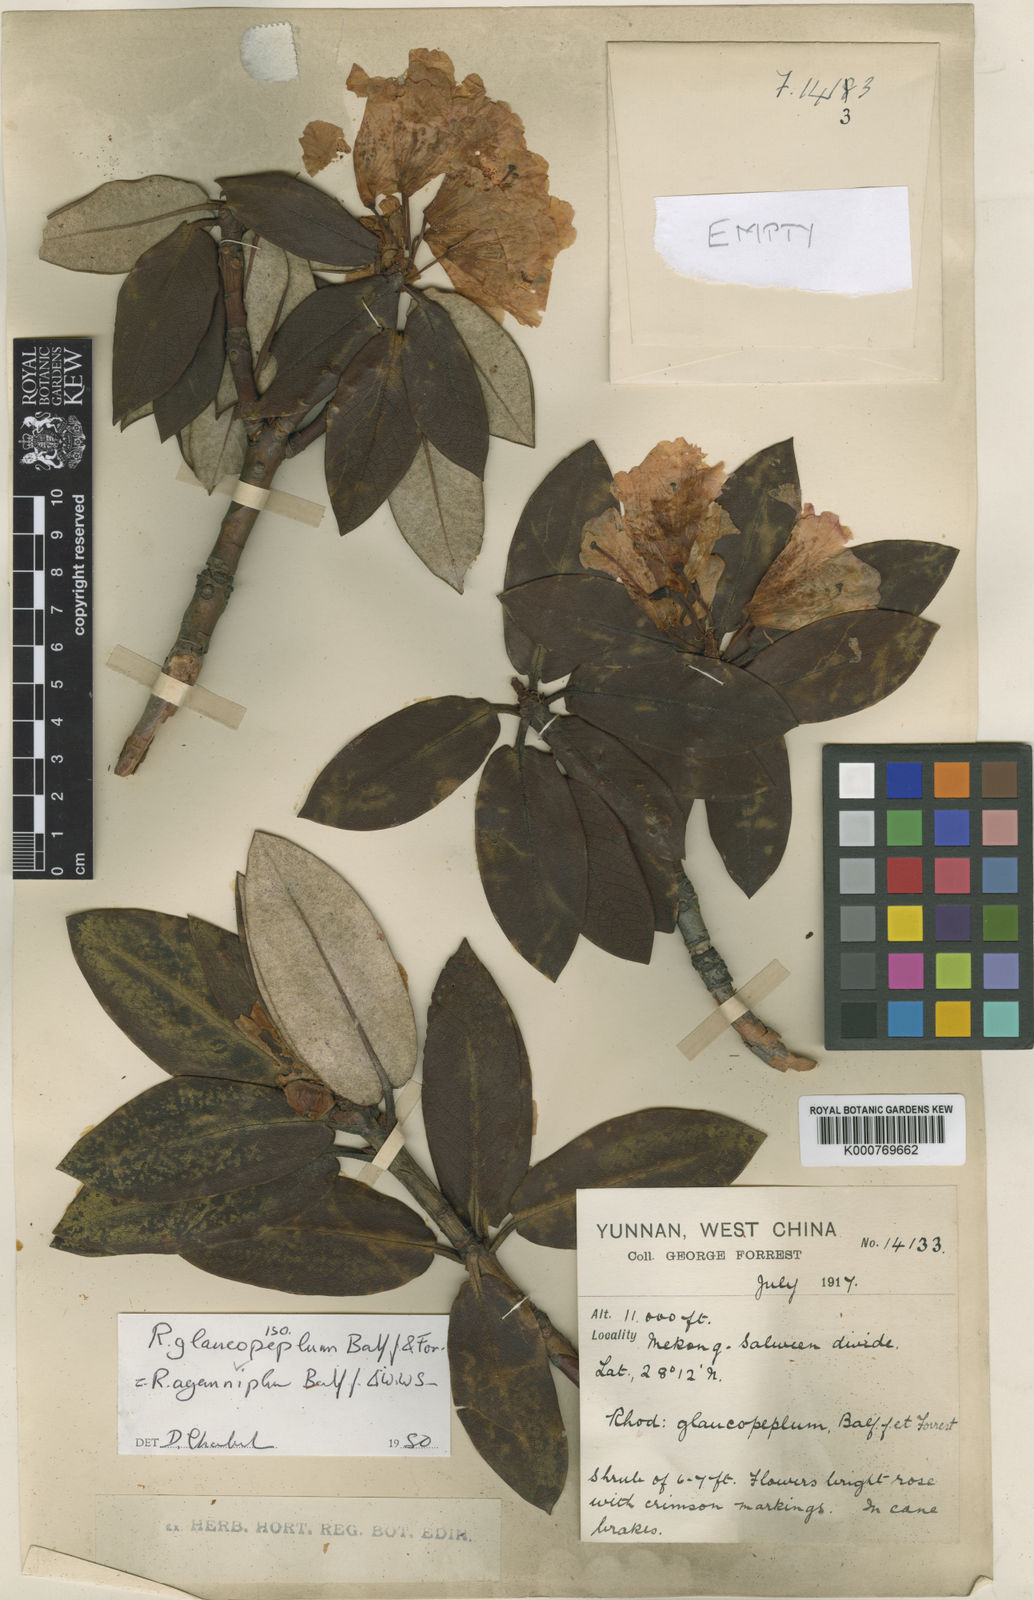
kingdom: Plantae
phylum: Tracheophyta
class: Magnoliopsida
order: Ericales
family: Ericaceae
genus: Rhododendron
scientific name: Rhododendron aganniphum
